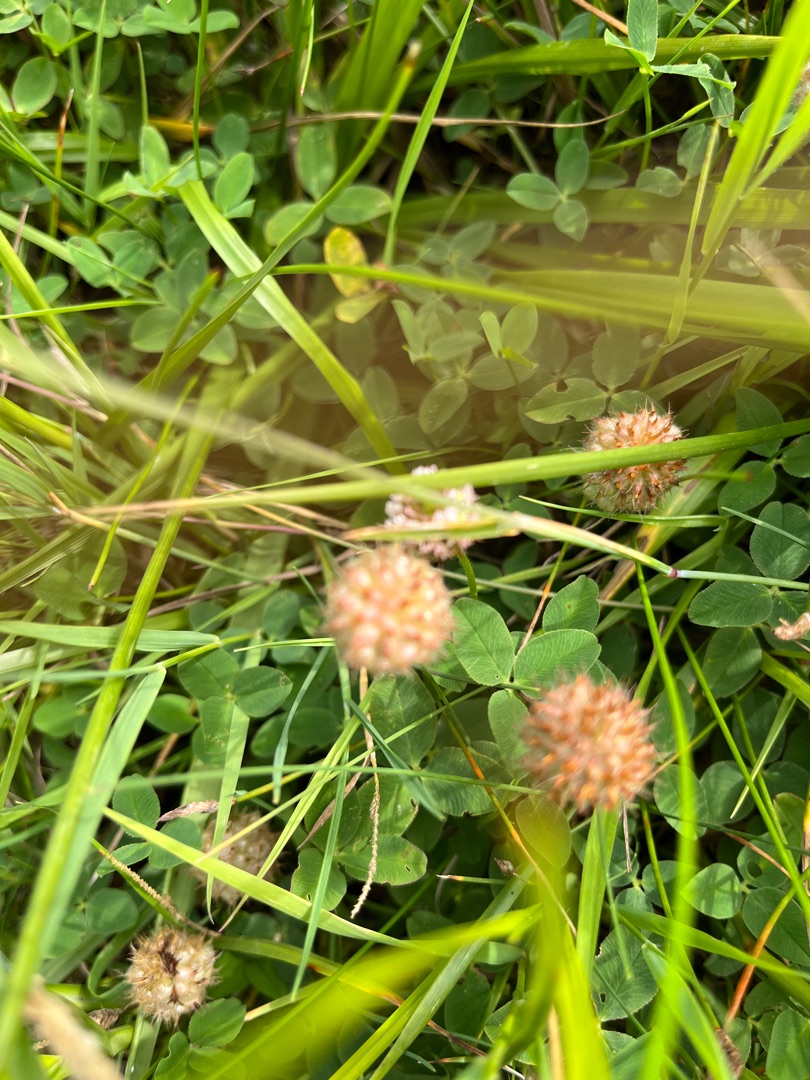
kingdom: Plantae
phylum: Tracheophyta
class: Magnoliopsida
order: Fabales
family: Fabaceae
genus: Trifolium
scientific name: Trifolium fragiferum
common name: Jordbær-kløver
